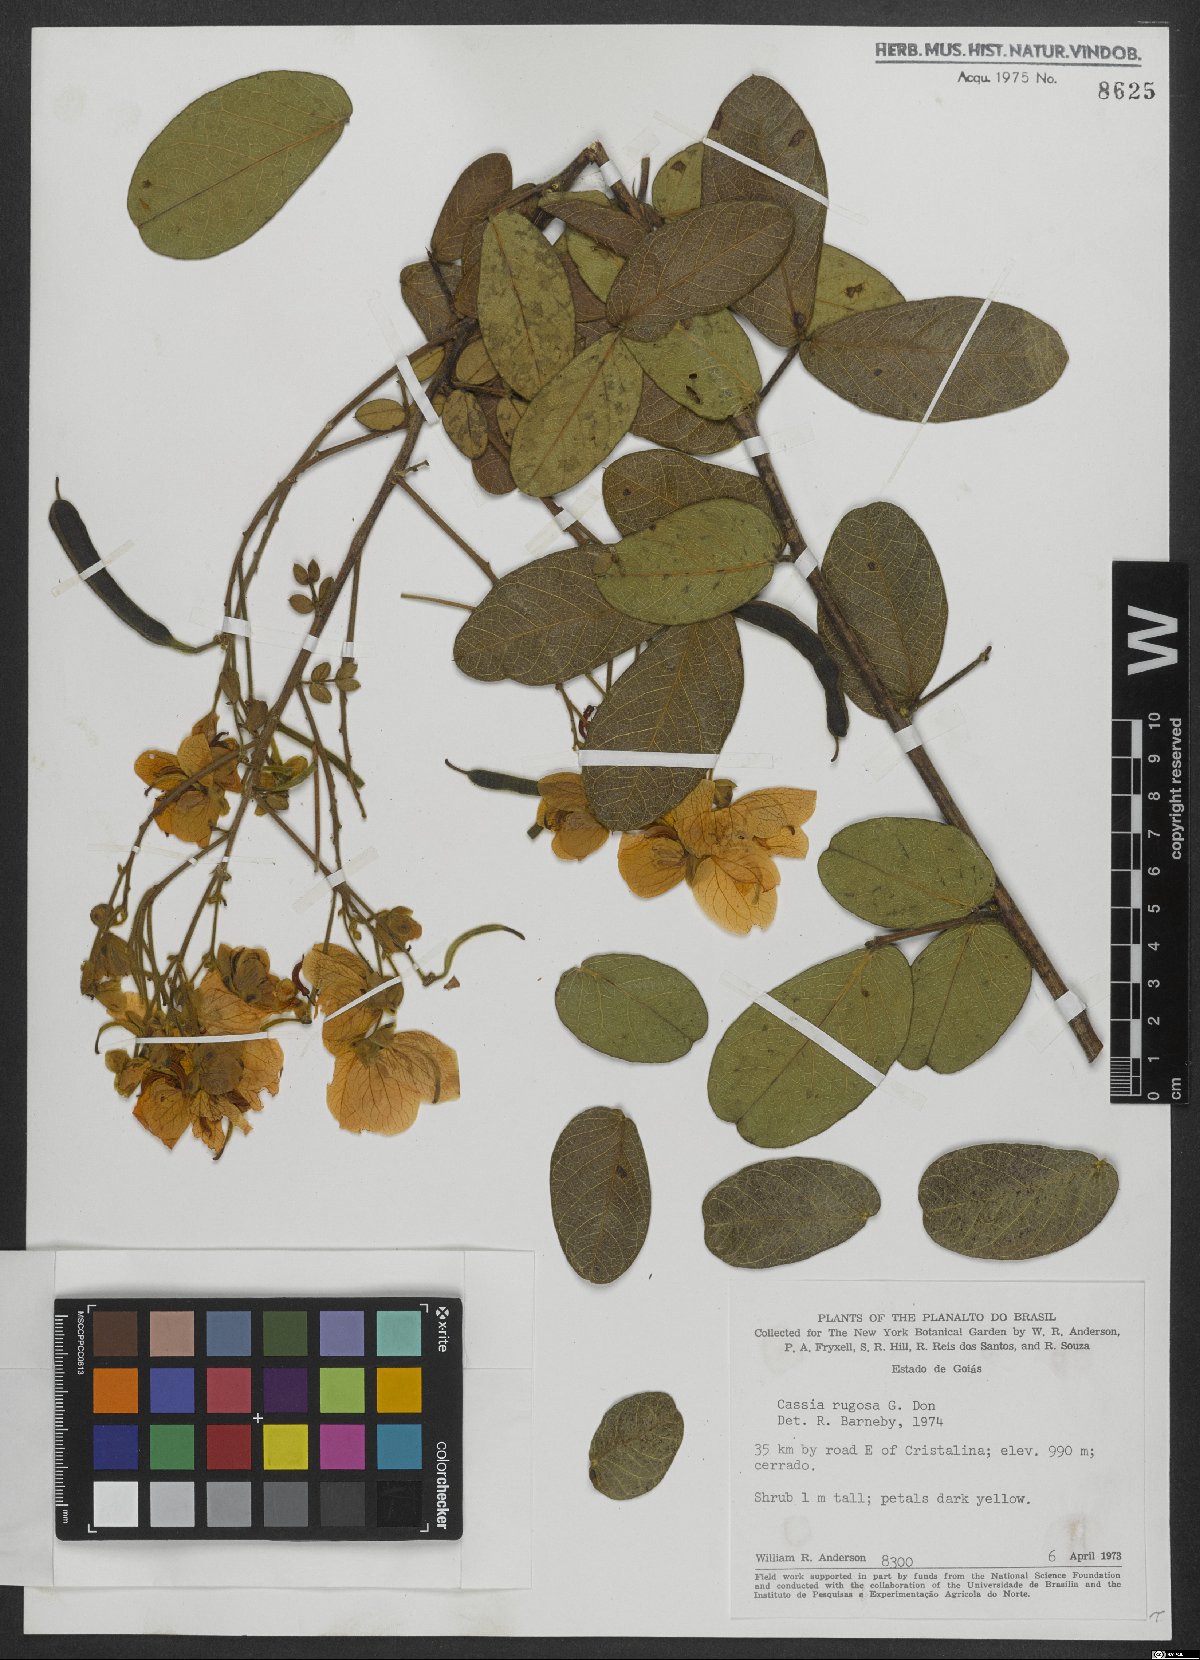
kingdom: Plantae
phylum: Tracheophyta
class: Magnoliopsida
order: Fabales
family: Fabaceae
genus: Senna
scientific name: Senna rugosa
